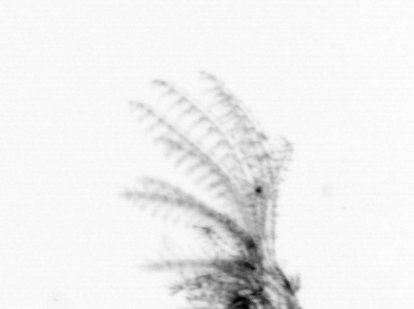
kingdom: Animalia
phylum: Arthropoda
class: Maxillopoda
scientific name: Maxillopoda
